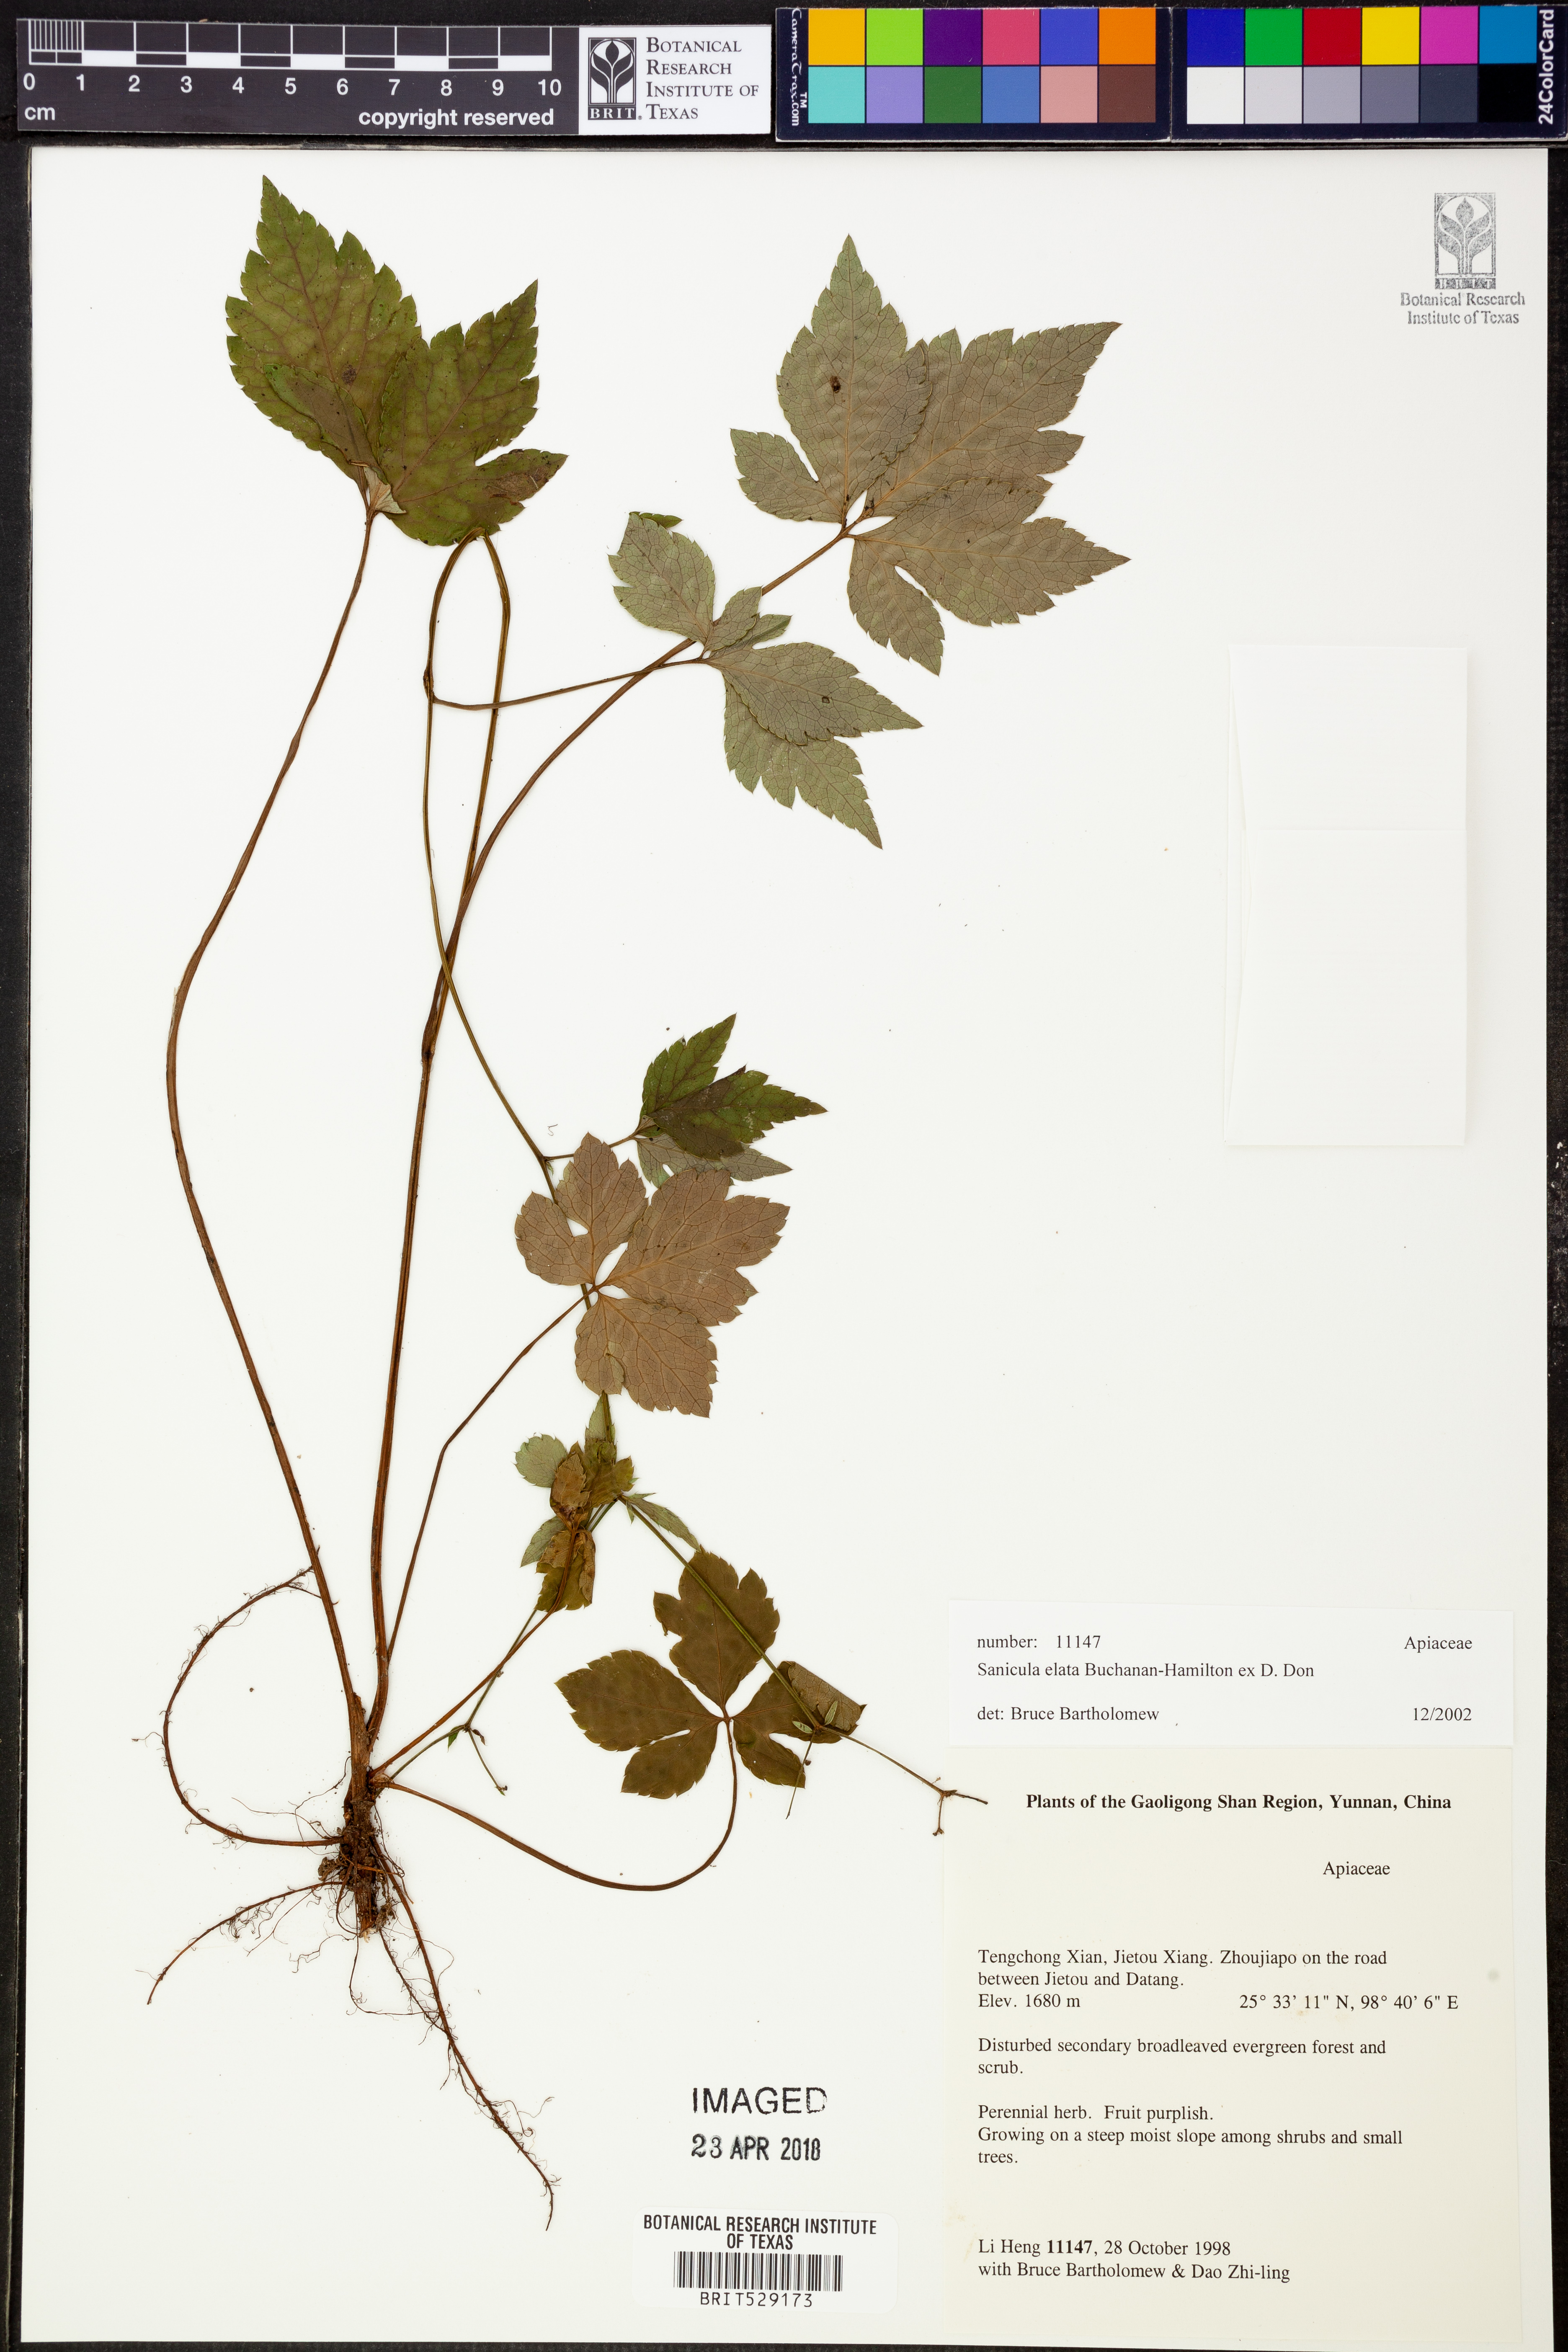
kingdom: Plantae
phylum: Tracheophyta
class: Magnoliopsida
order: Apiales
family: Apiaceae
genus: Sanicula
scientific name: Sanicula elata
